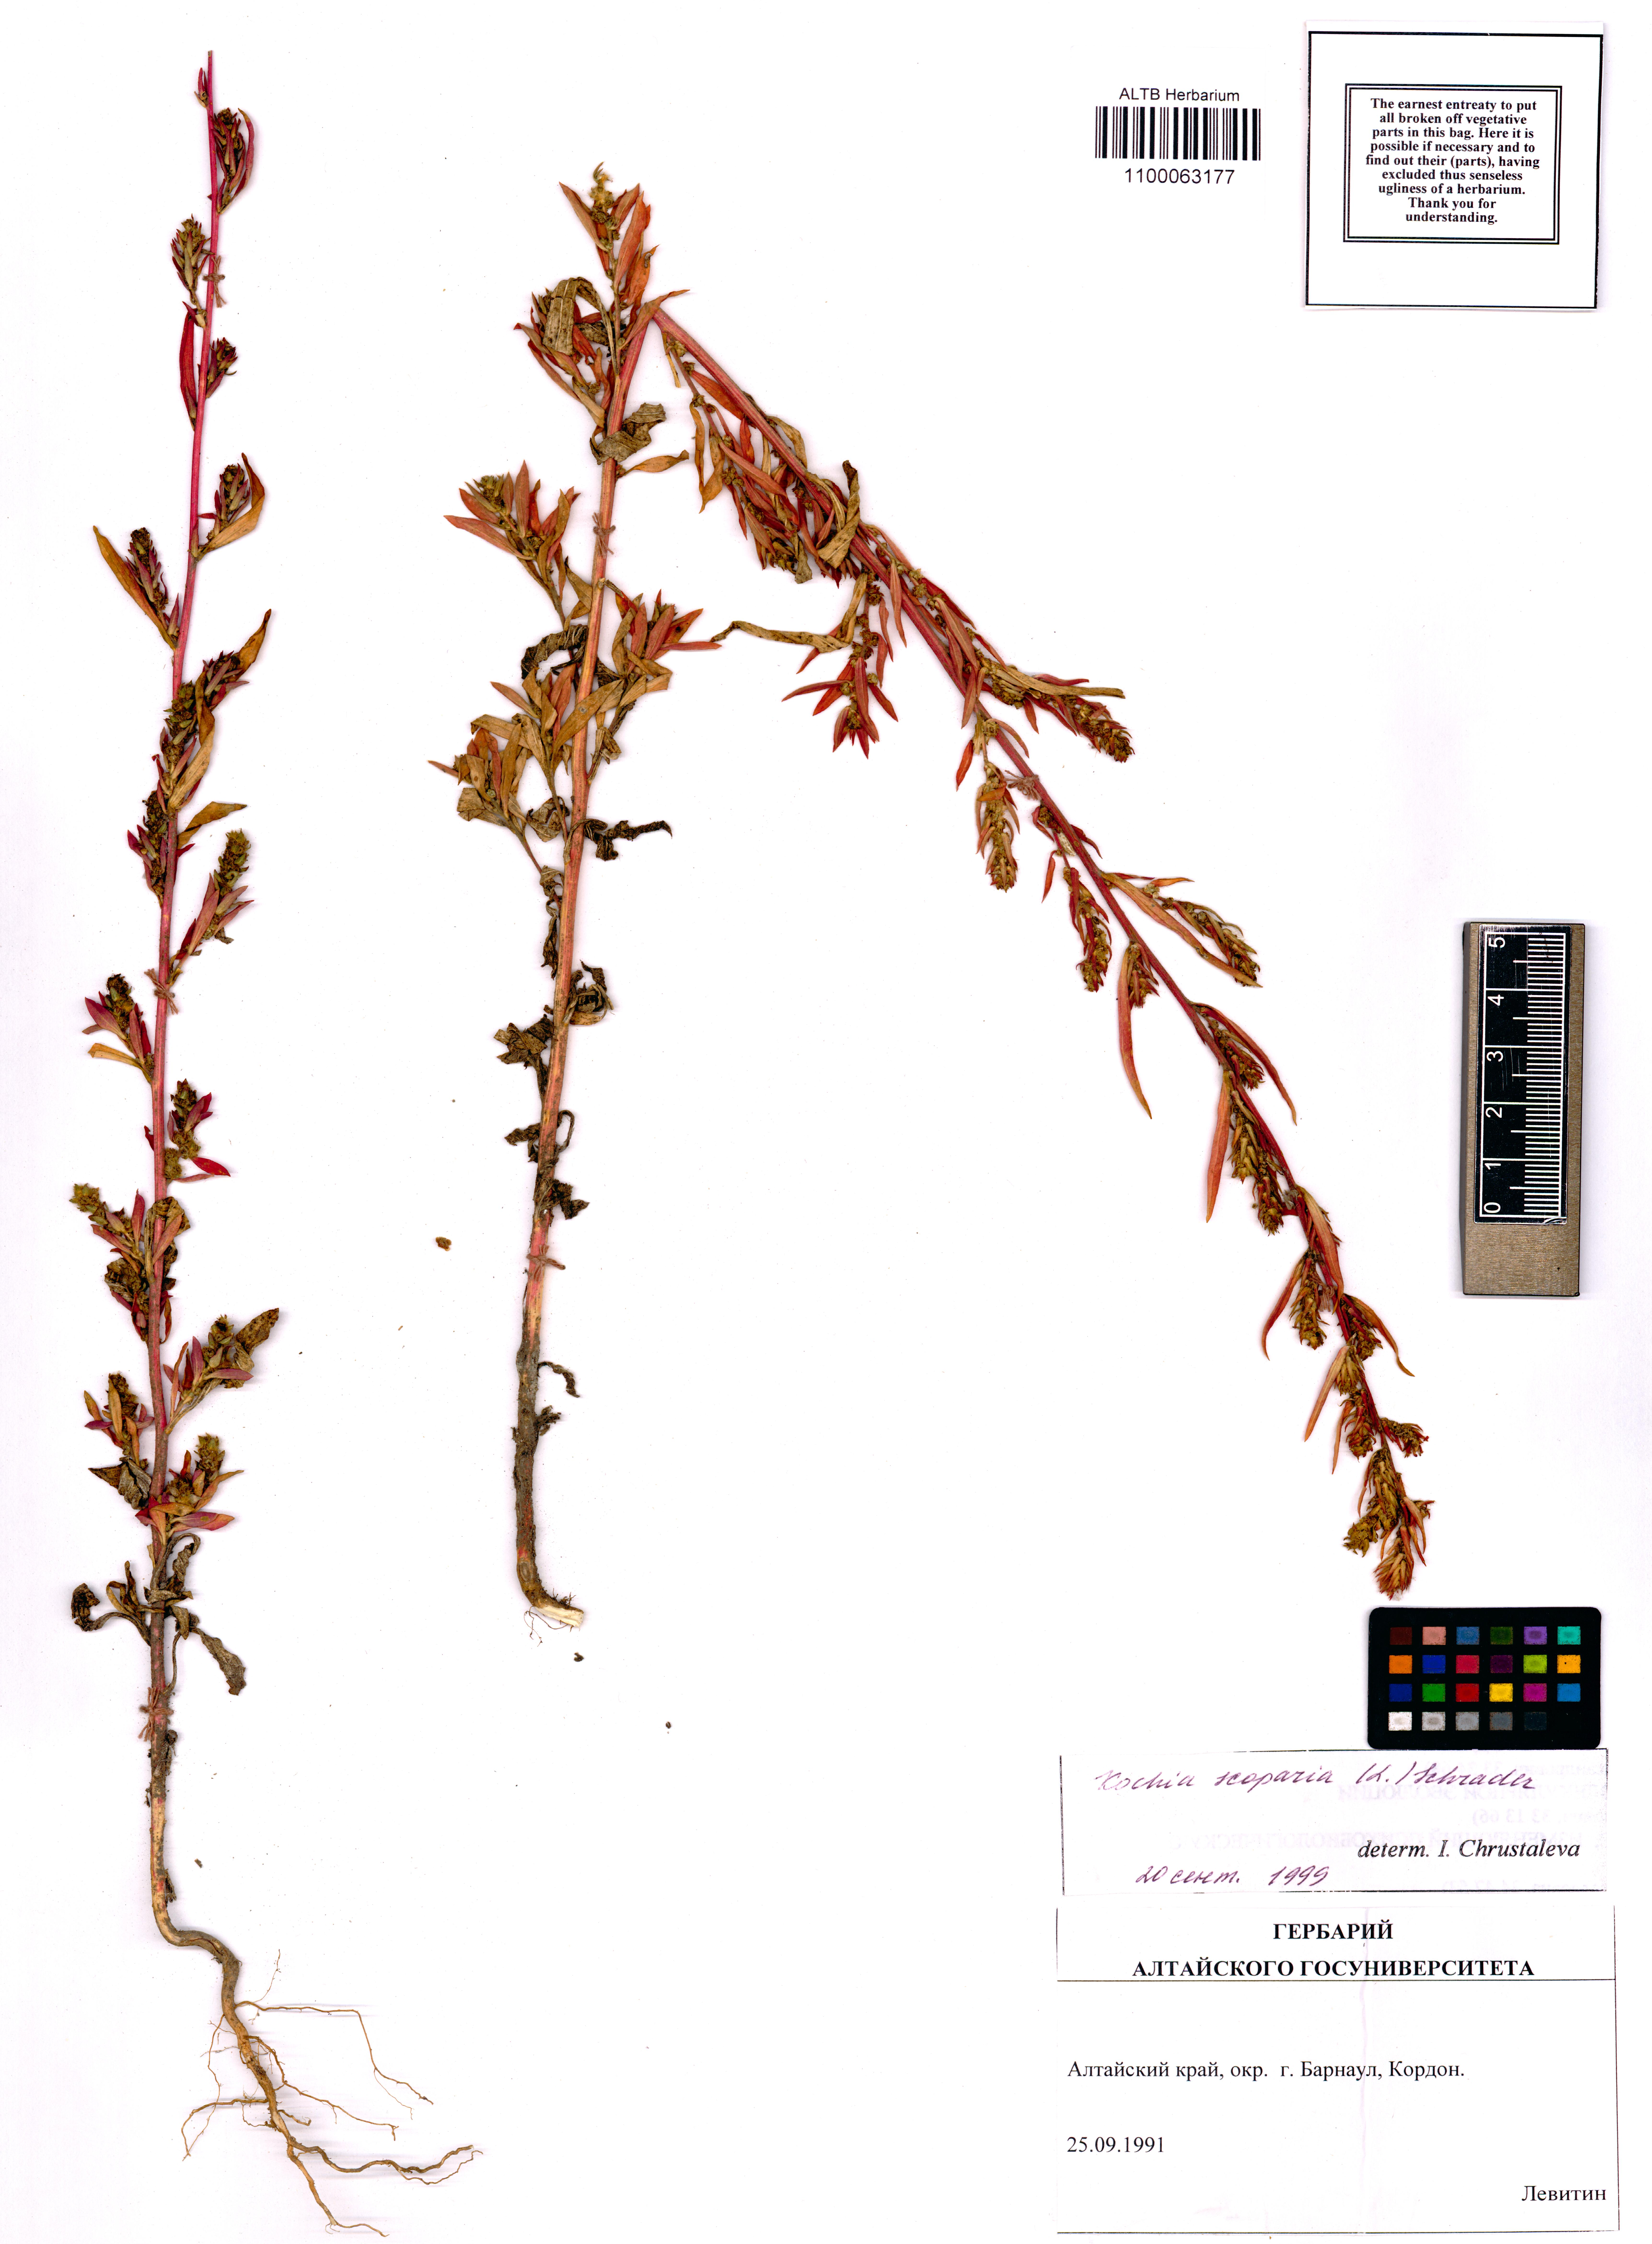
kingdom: Plantae
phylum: Tracheophyta
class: Magnoliopsida
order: Caryophyllales
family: Amaranthaceae
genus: Bassia
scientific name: Bassia scoparia
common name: Belvedere
